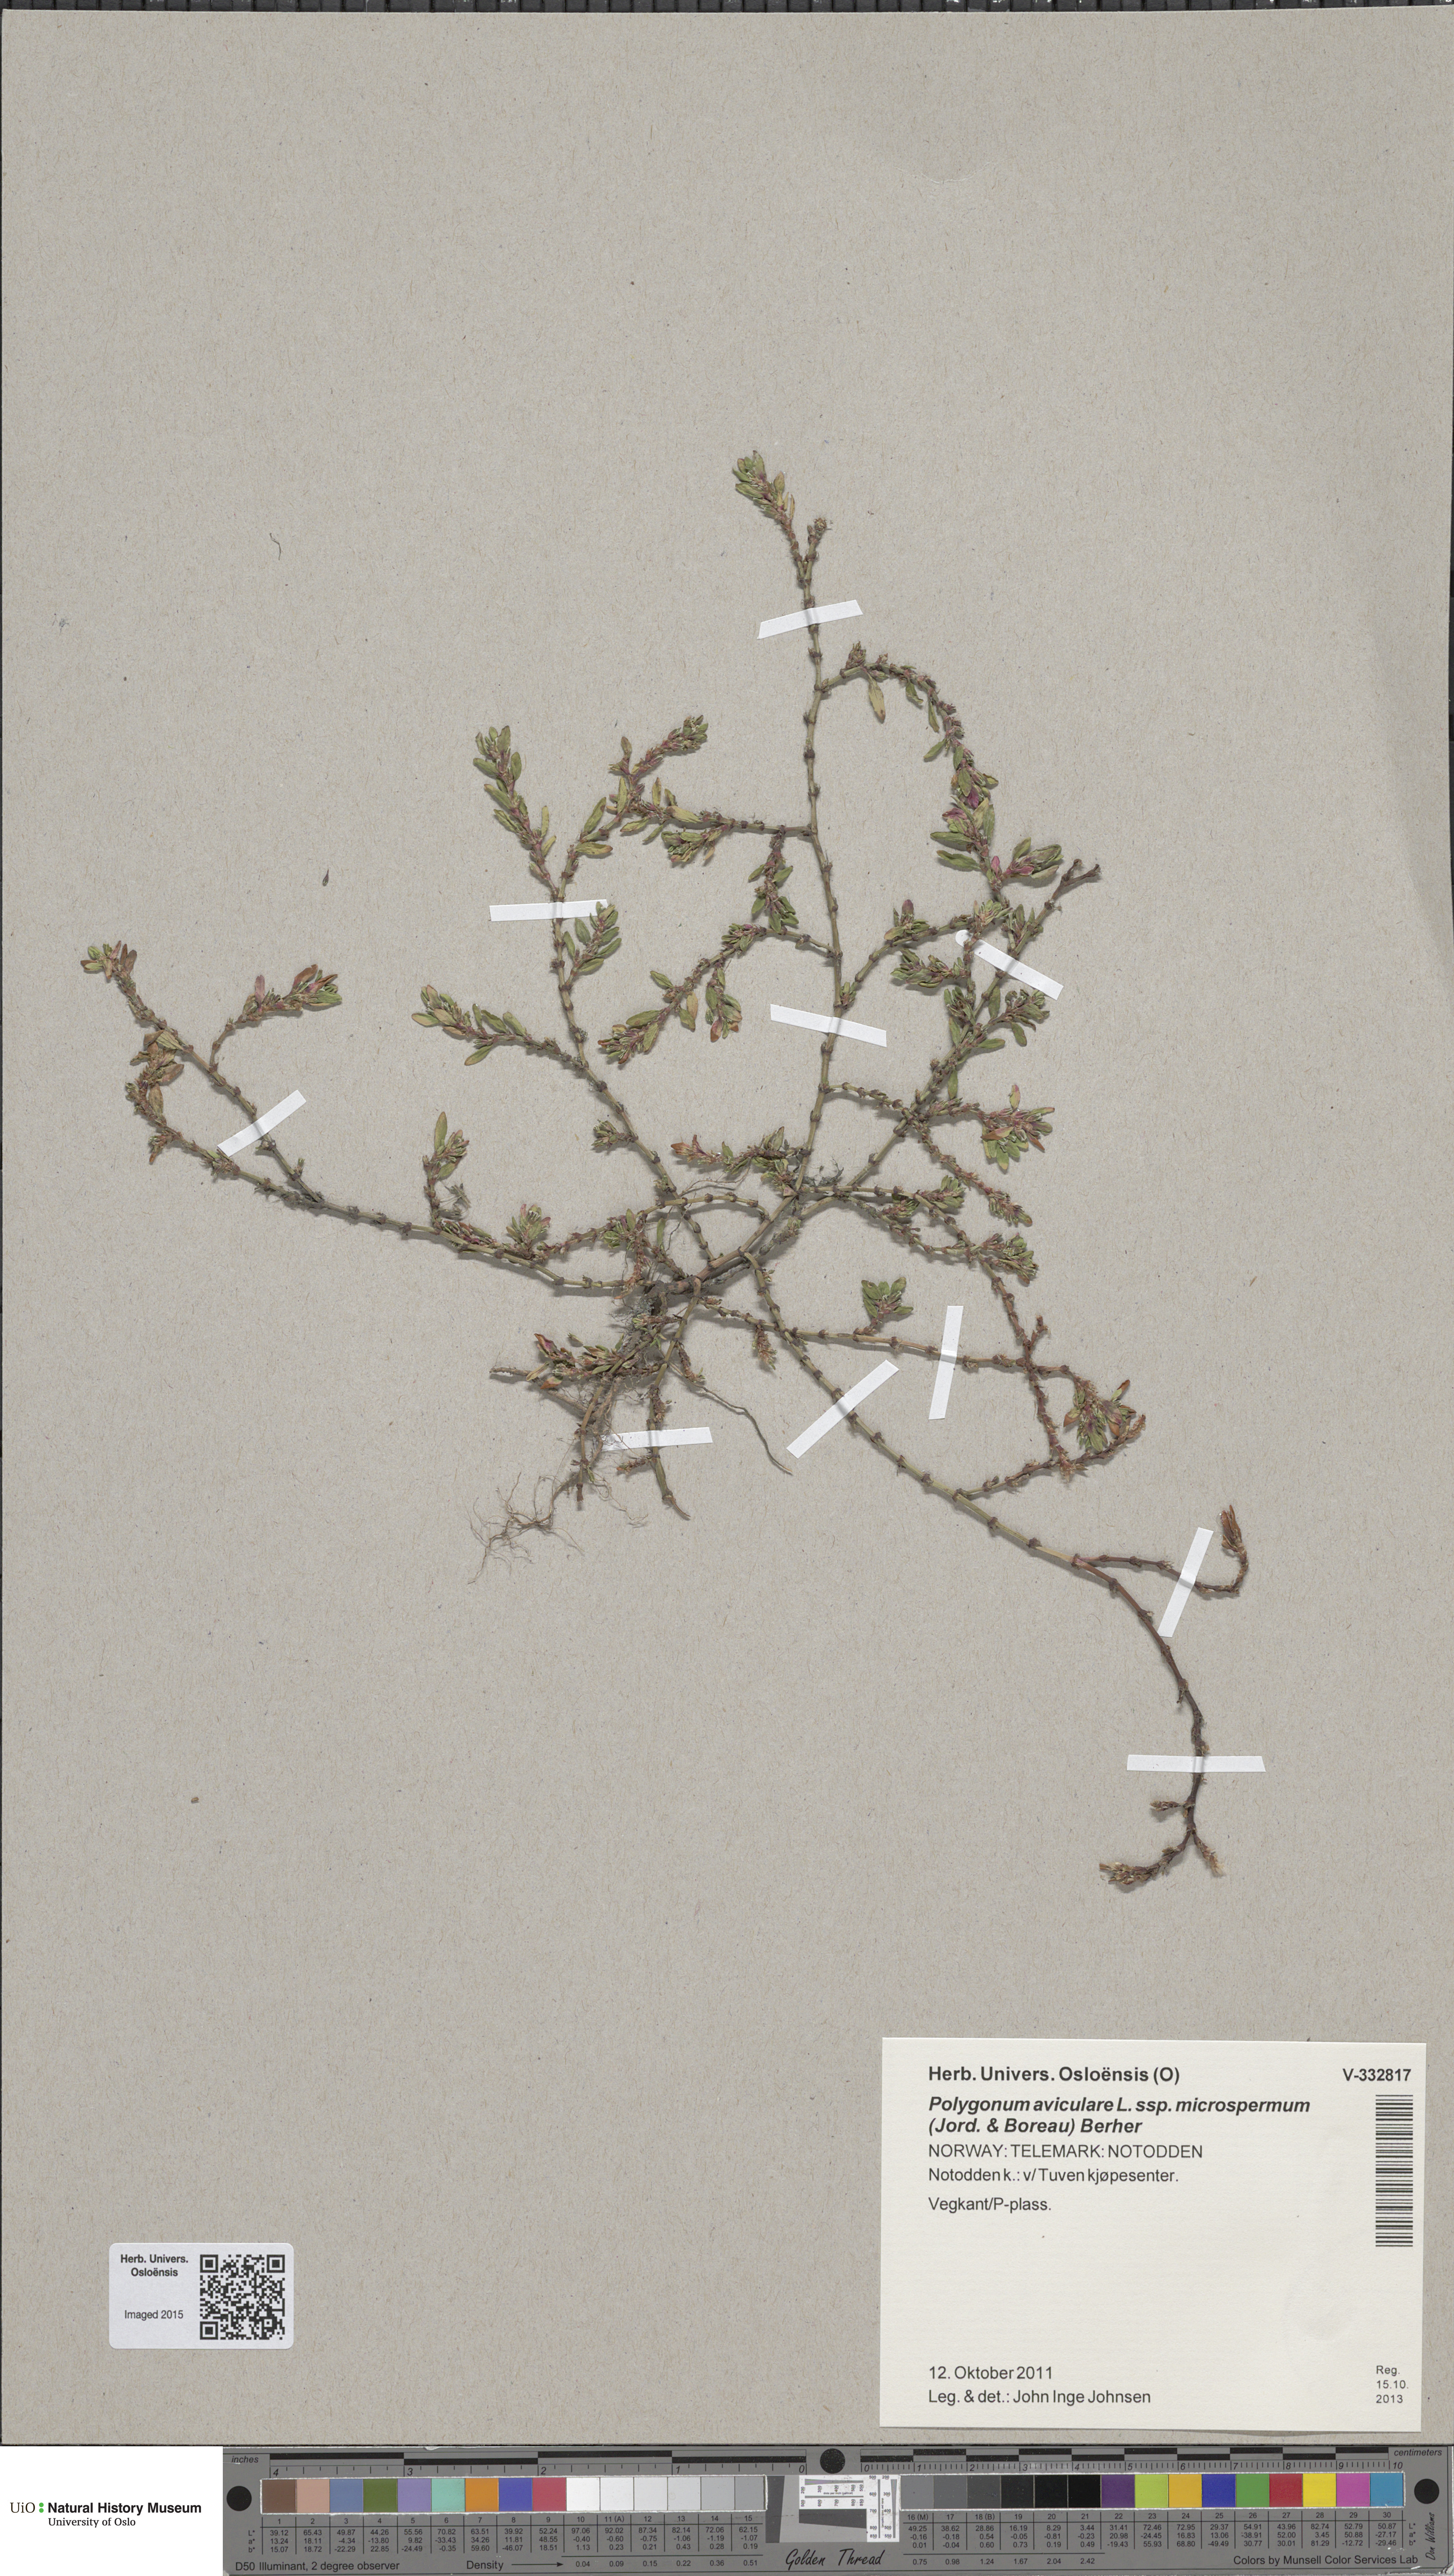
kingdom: Plantae
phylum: Tracheophyta
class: Magnoliopsida
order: Caryophyllales
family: Polygonaceae
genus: Polygonum
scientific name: Polygonum arenastrum
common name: Equal-leaved knotgrass
